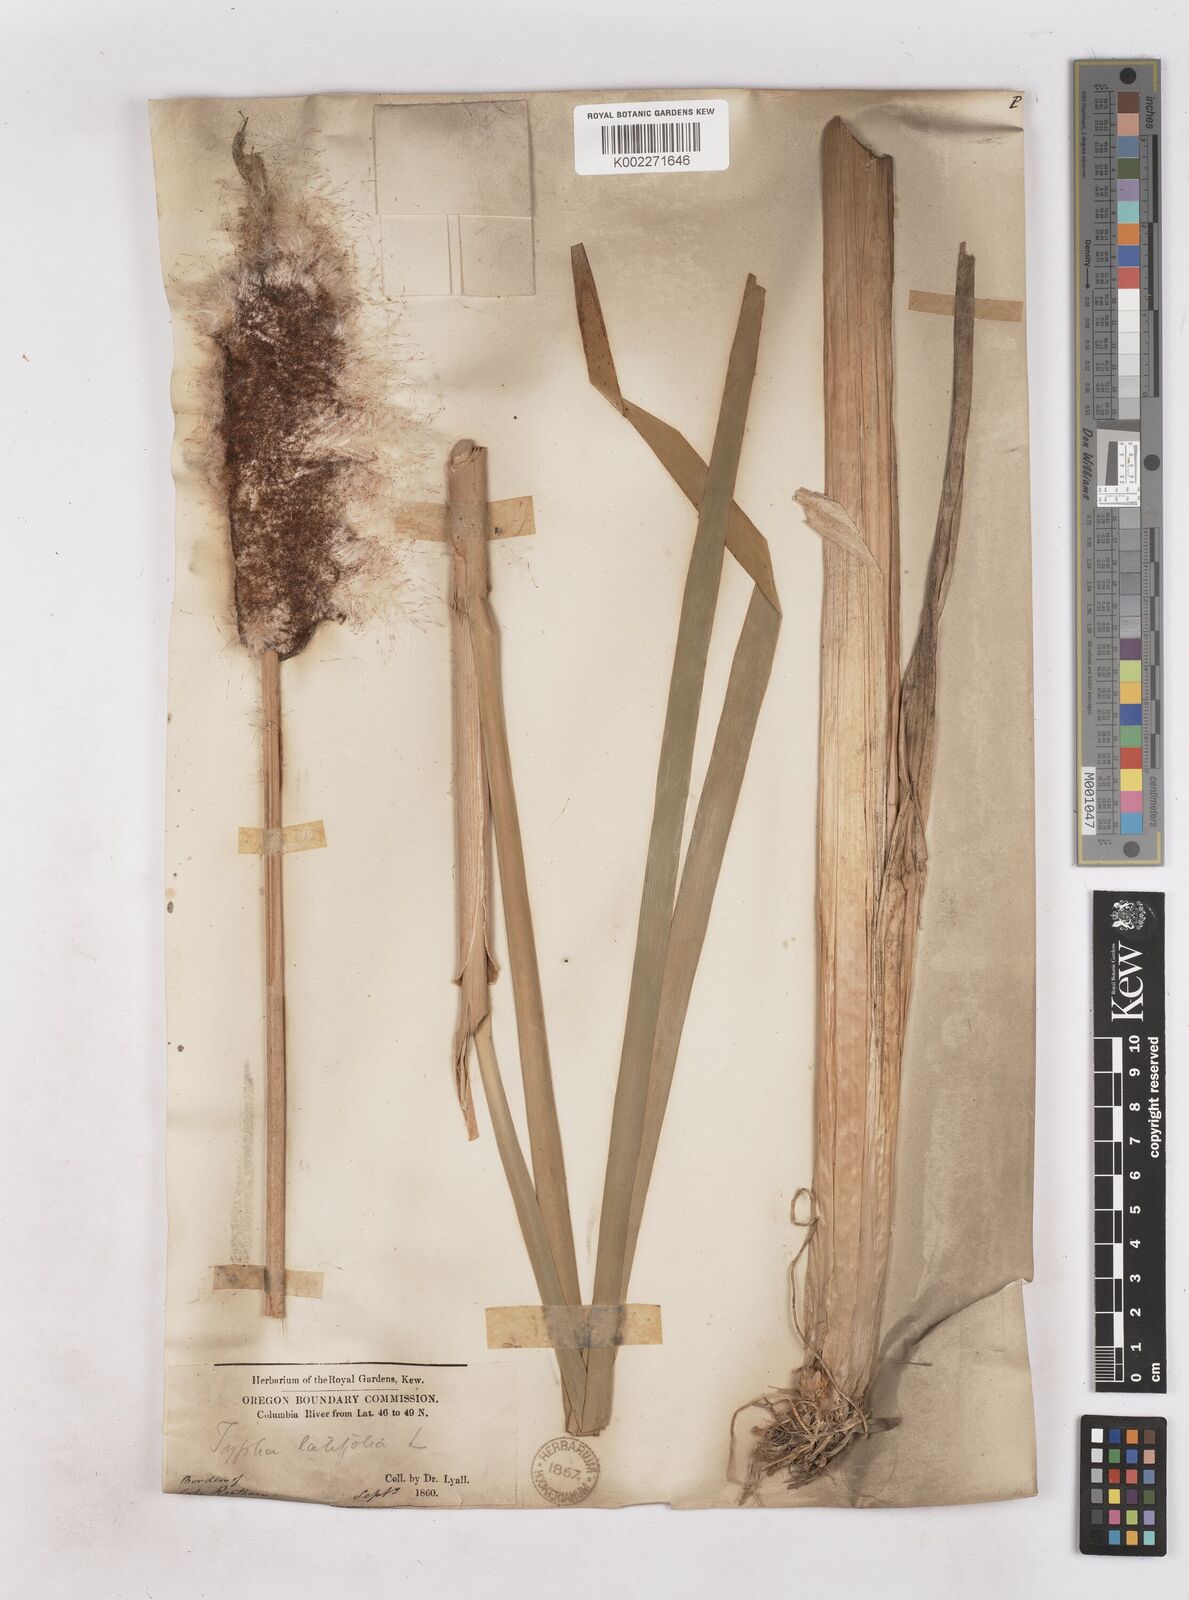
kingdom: Plantae
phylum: Tracheophyta
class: Liliopsida
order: Poales
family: Typhaceae
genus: Typha
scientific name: Typha latifolia
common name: Broadleaf cattail
